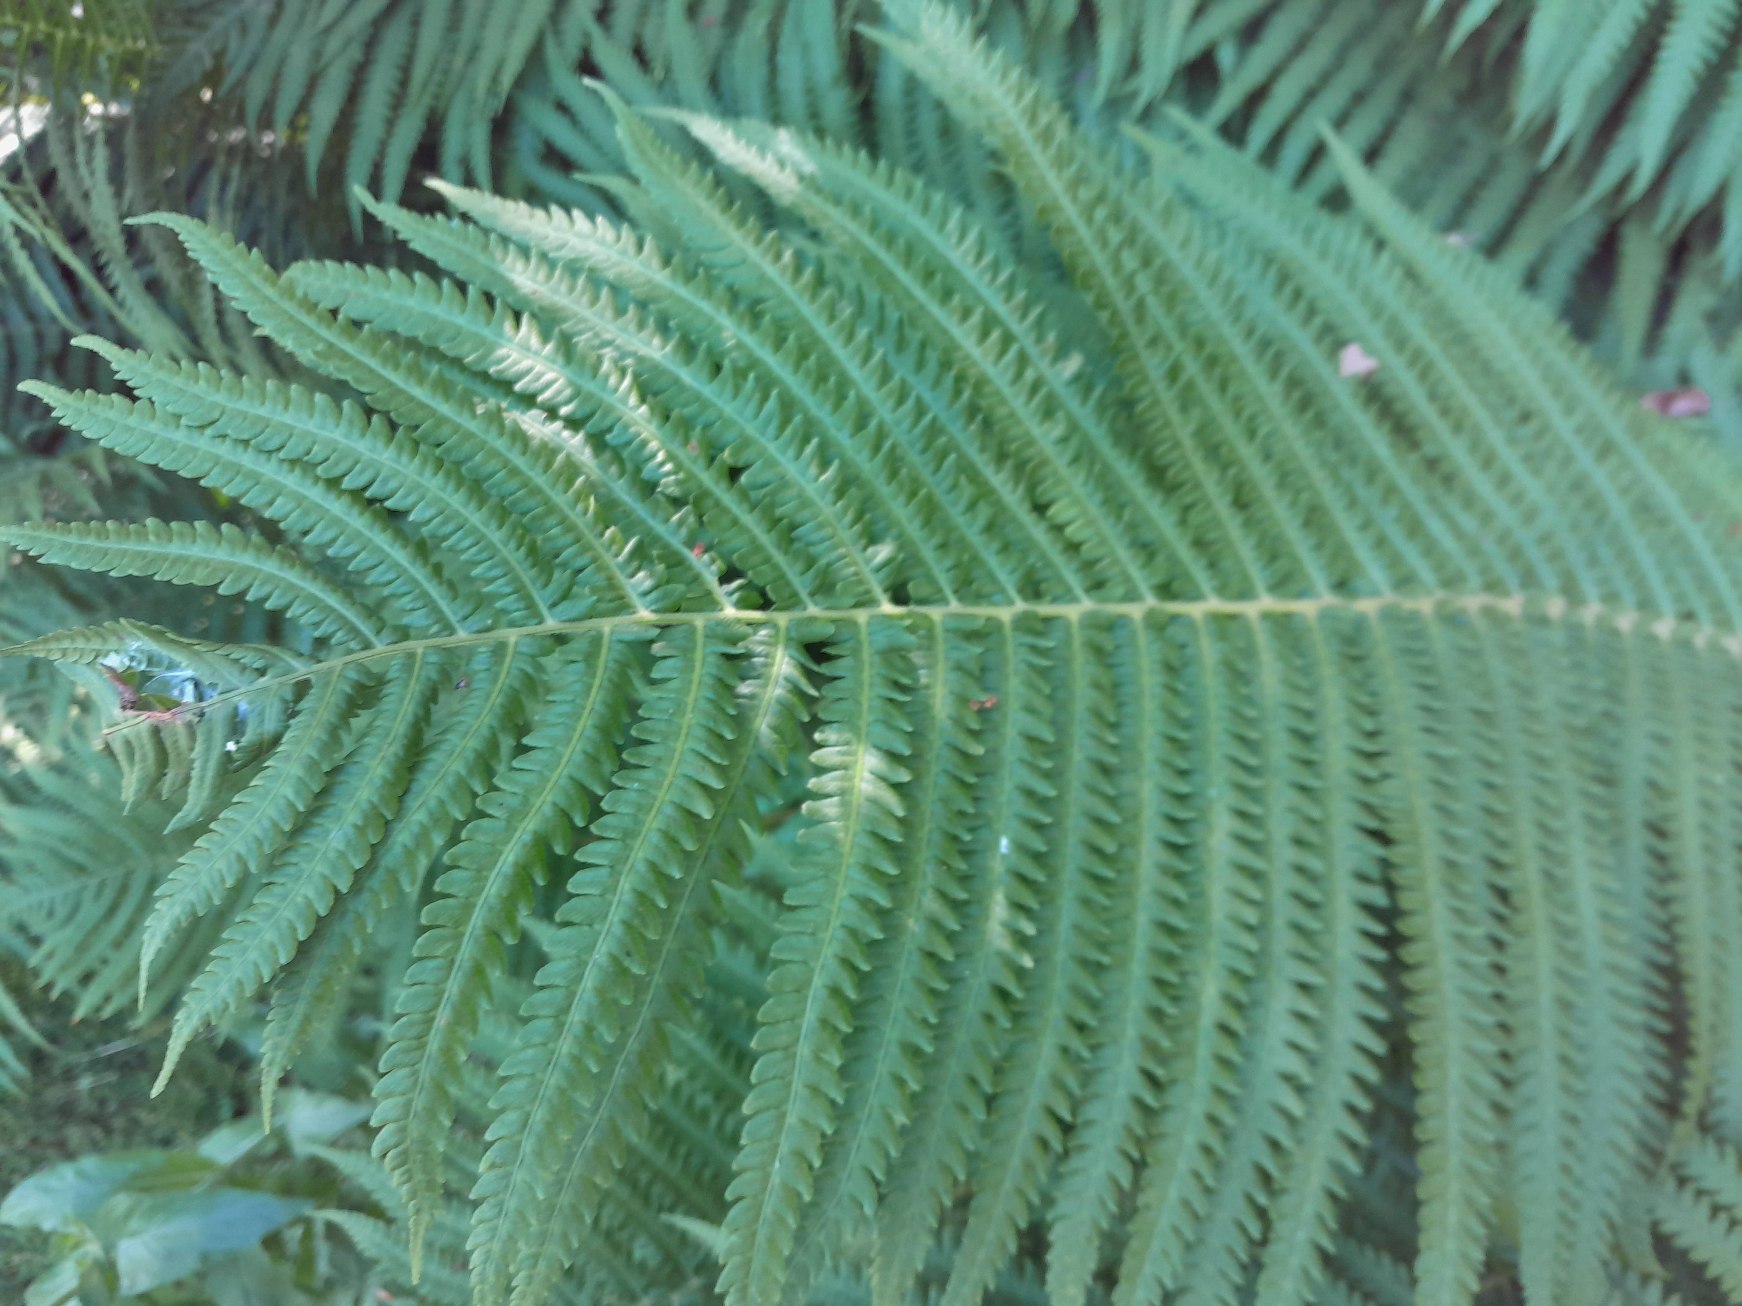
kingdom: Plantae
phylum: Tracheophyta
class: Polypodiopsida
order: Polypodiales
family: Onocleaceae
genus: Matteuccia
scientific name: Matteuccia struthiopteris
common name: Strudsvinge
